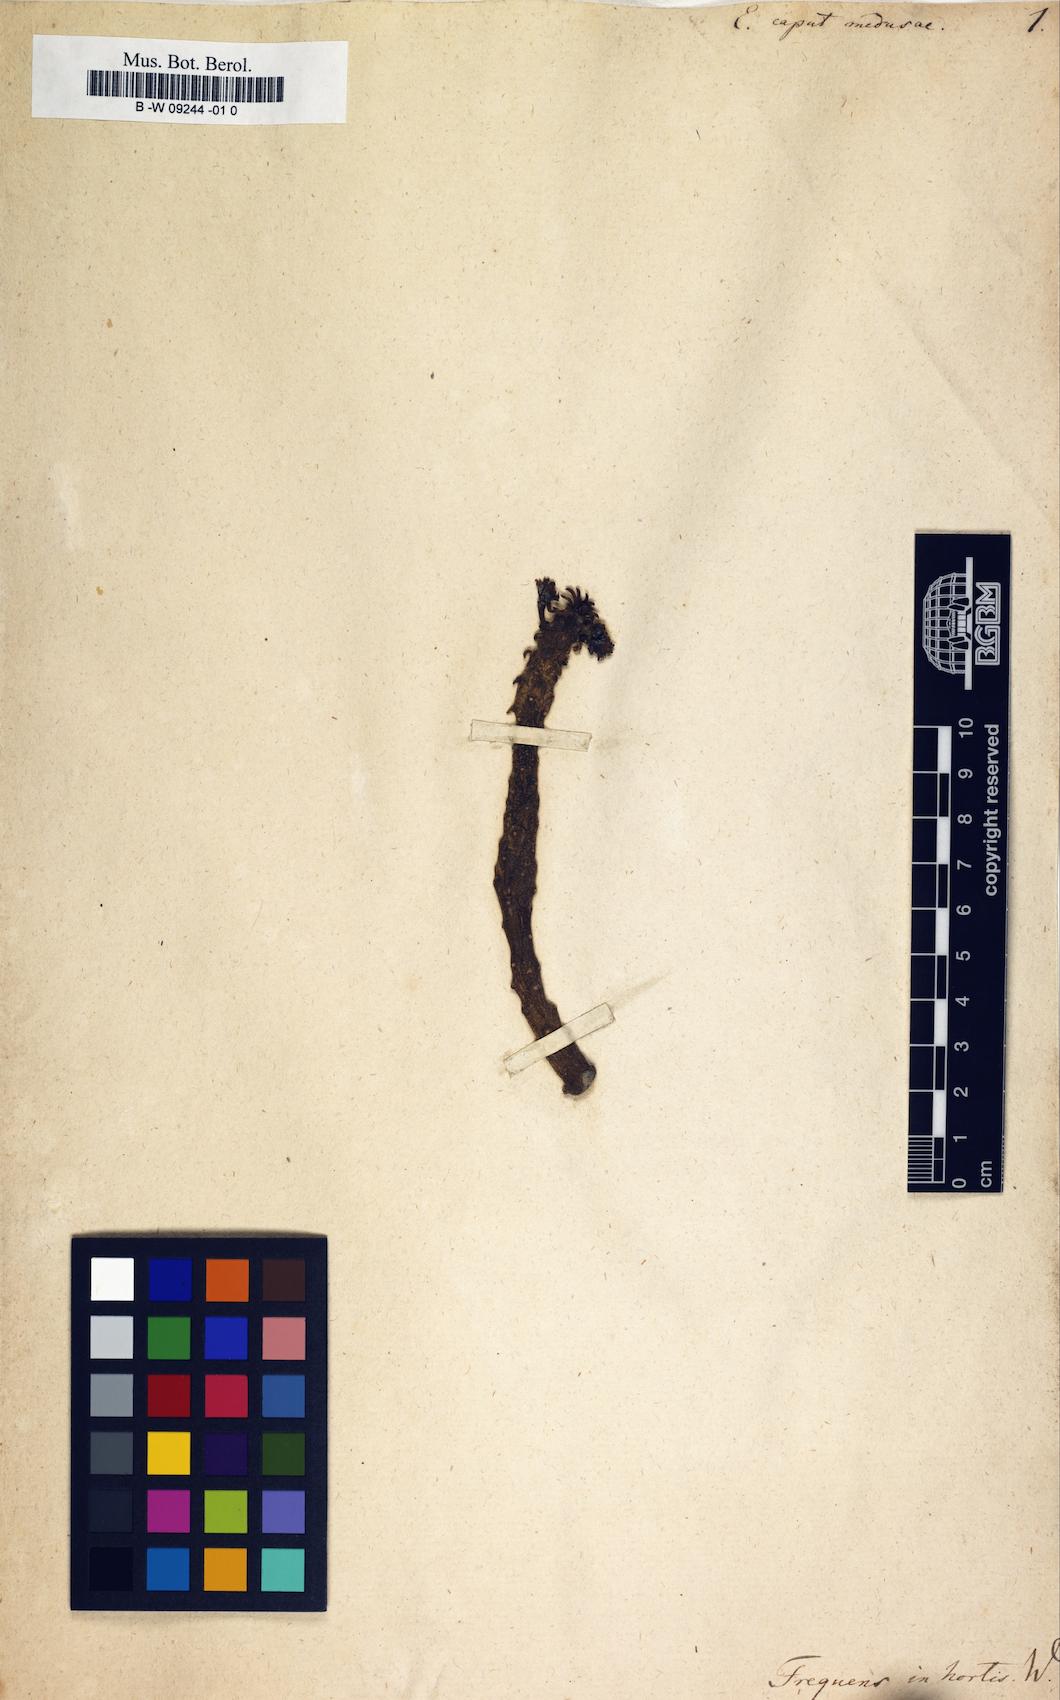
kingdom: Plantae
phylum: Tracheophyta
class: Magnoliopsida
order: Malpighiales
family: Euphorbiaceae
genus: Euphorbia
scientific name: Euphorbia caput-medusae
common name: Medusa's-head
